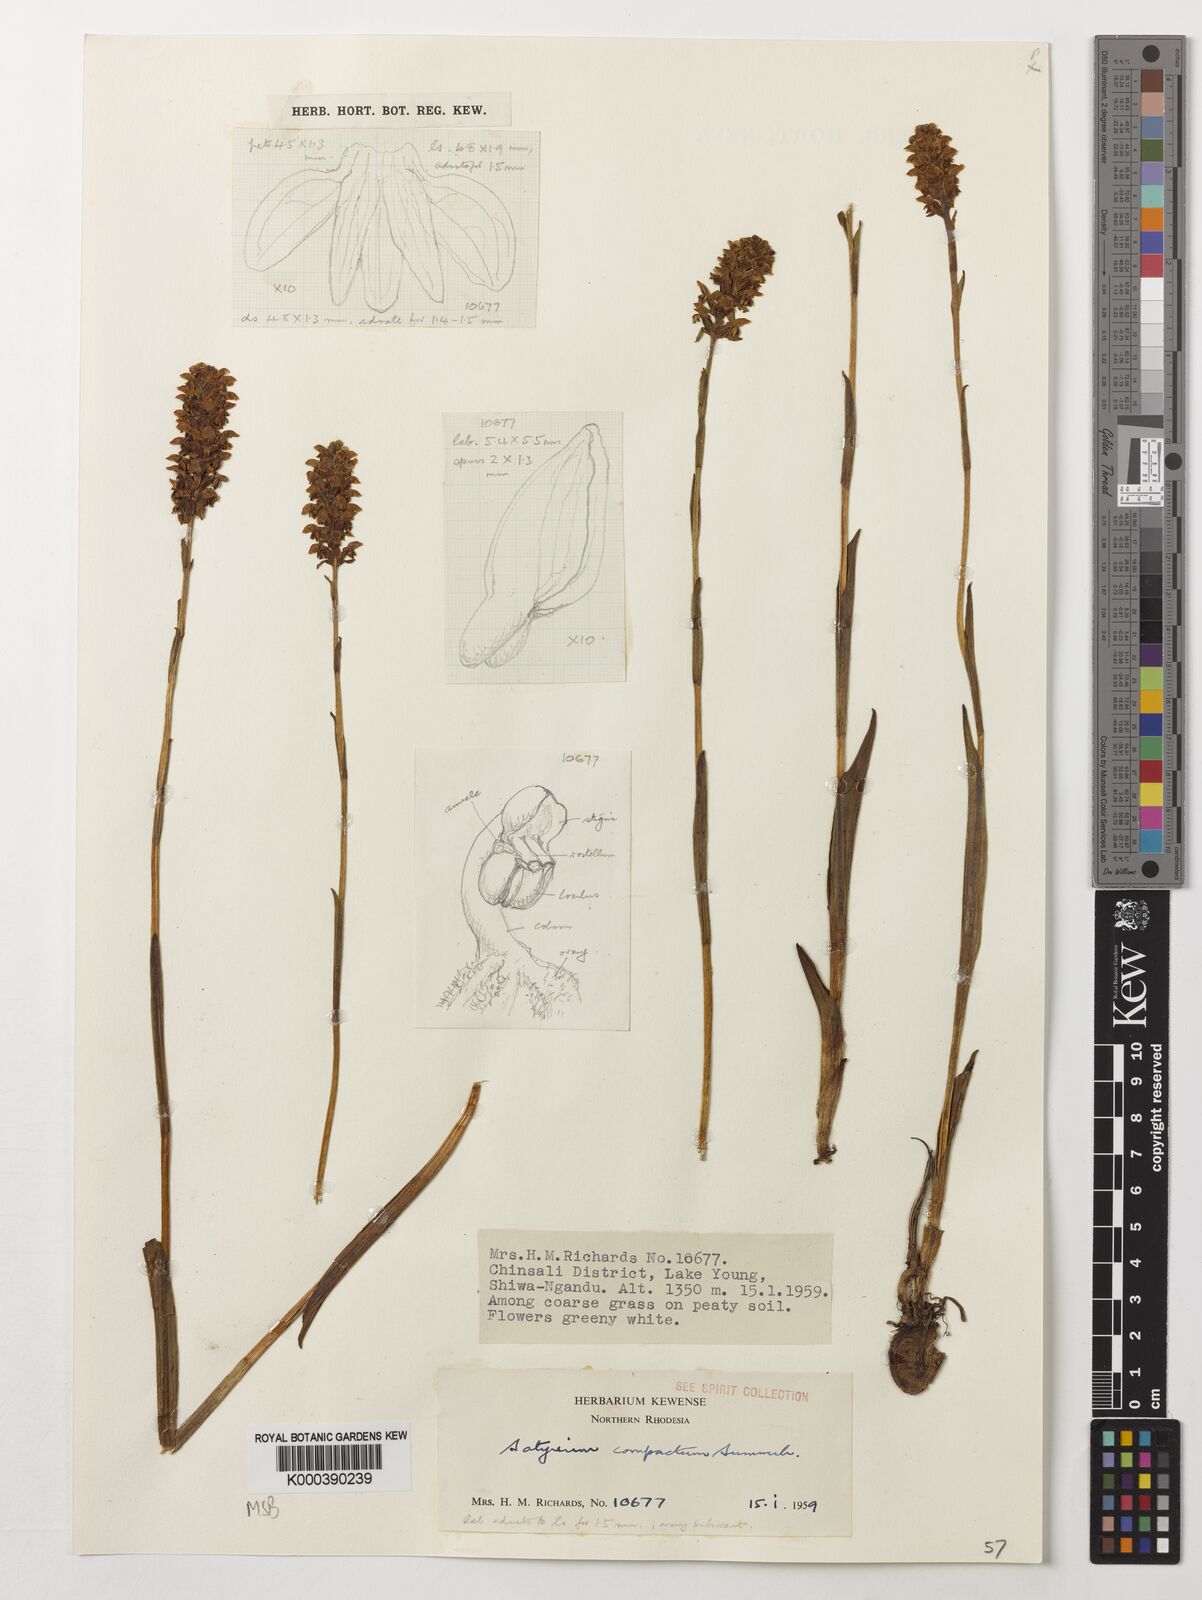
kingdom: Plantae
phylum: Tracheophyta
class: Liliopsida
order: Asparagales
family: Orchidaceae
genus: Satyrium
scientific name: Satyrium compactum
